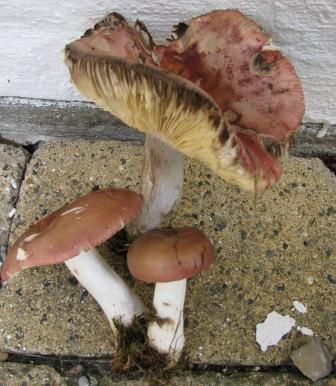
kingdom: Fungi
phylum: Basidiomycota
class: Agaricomycetes
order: Russulales
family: Russulaceae
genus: Russula
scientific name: Russula vinosa
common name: vinrød skørhat
